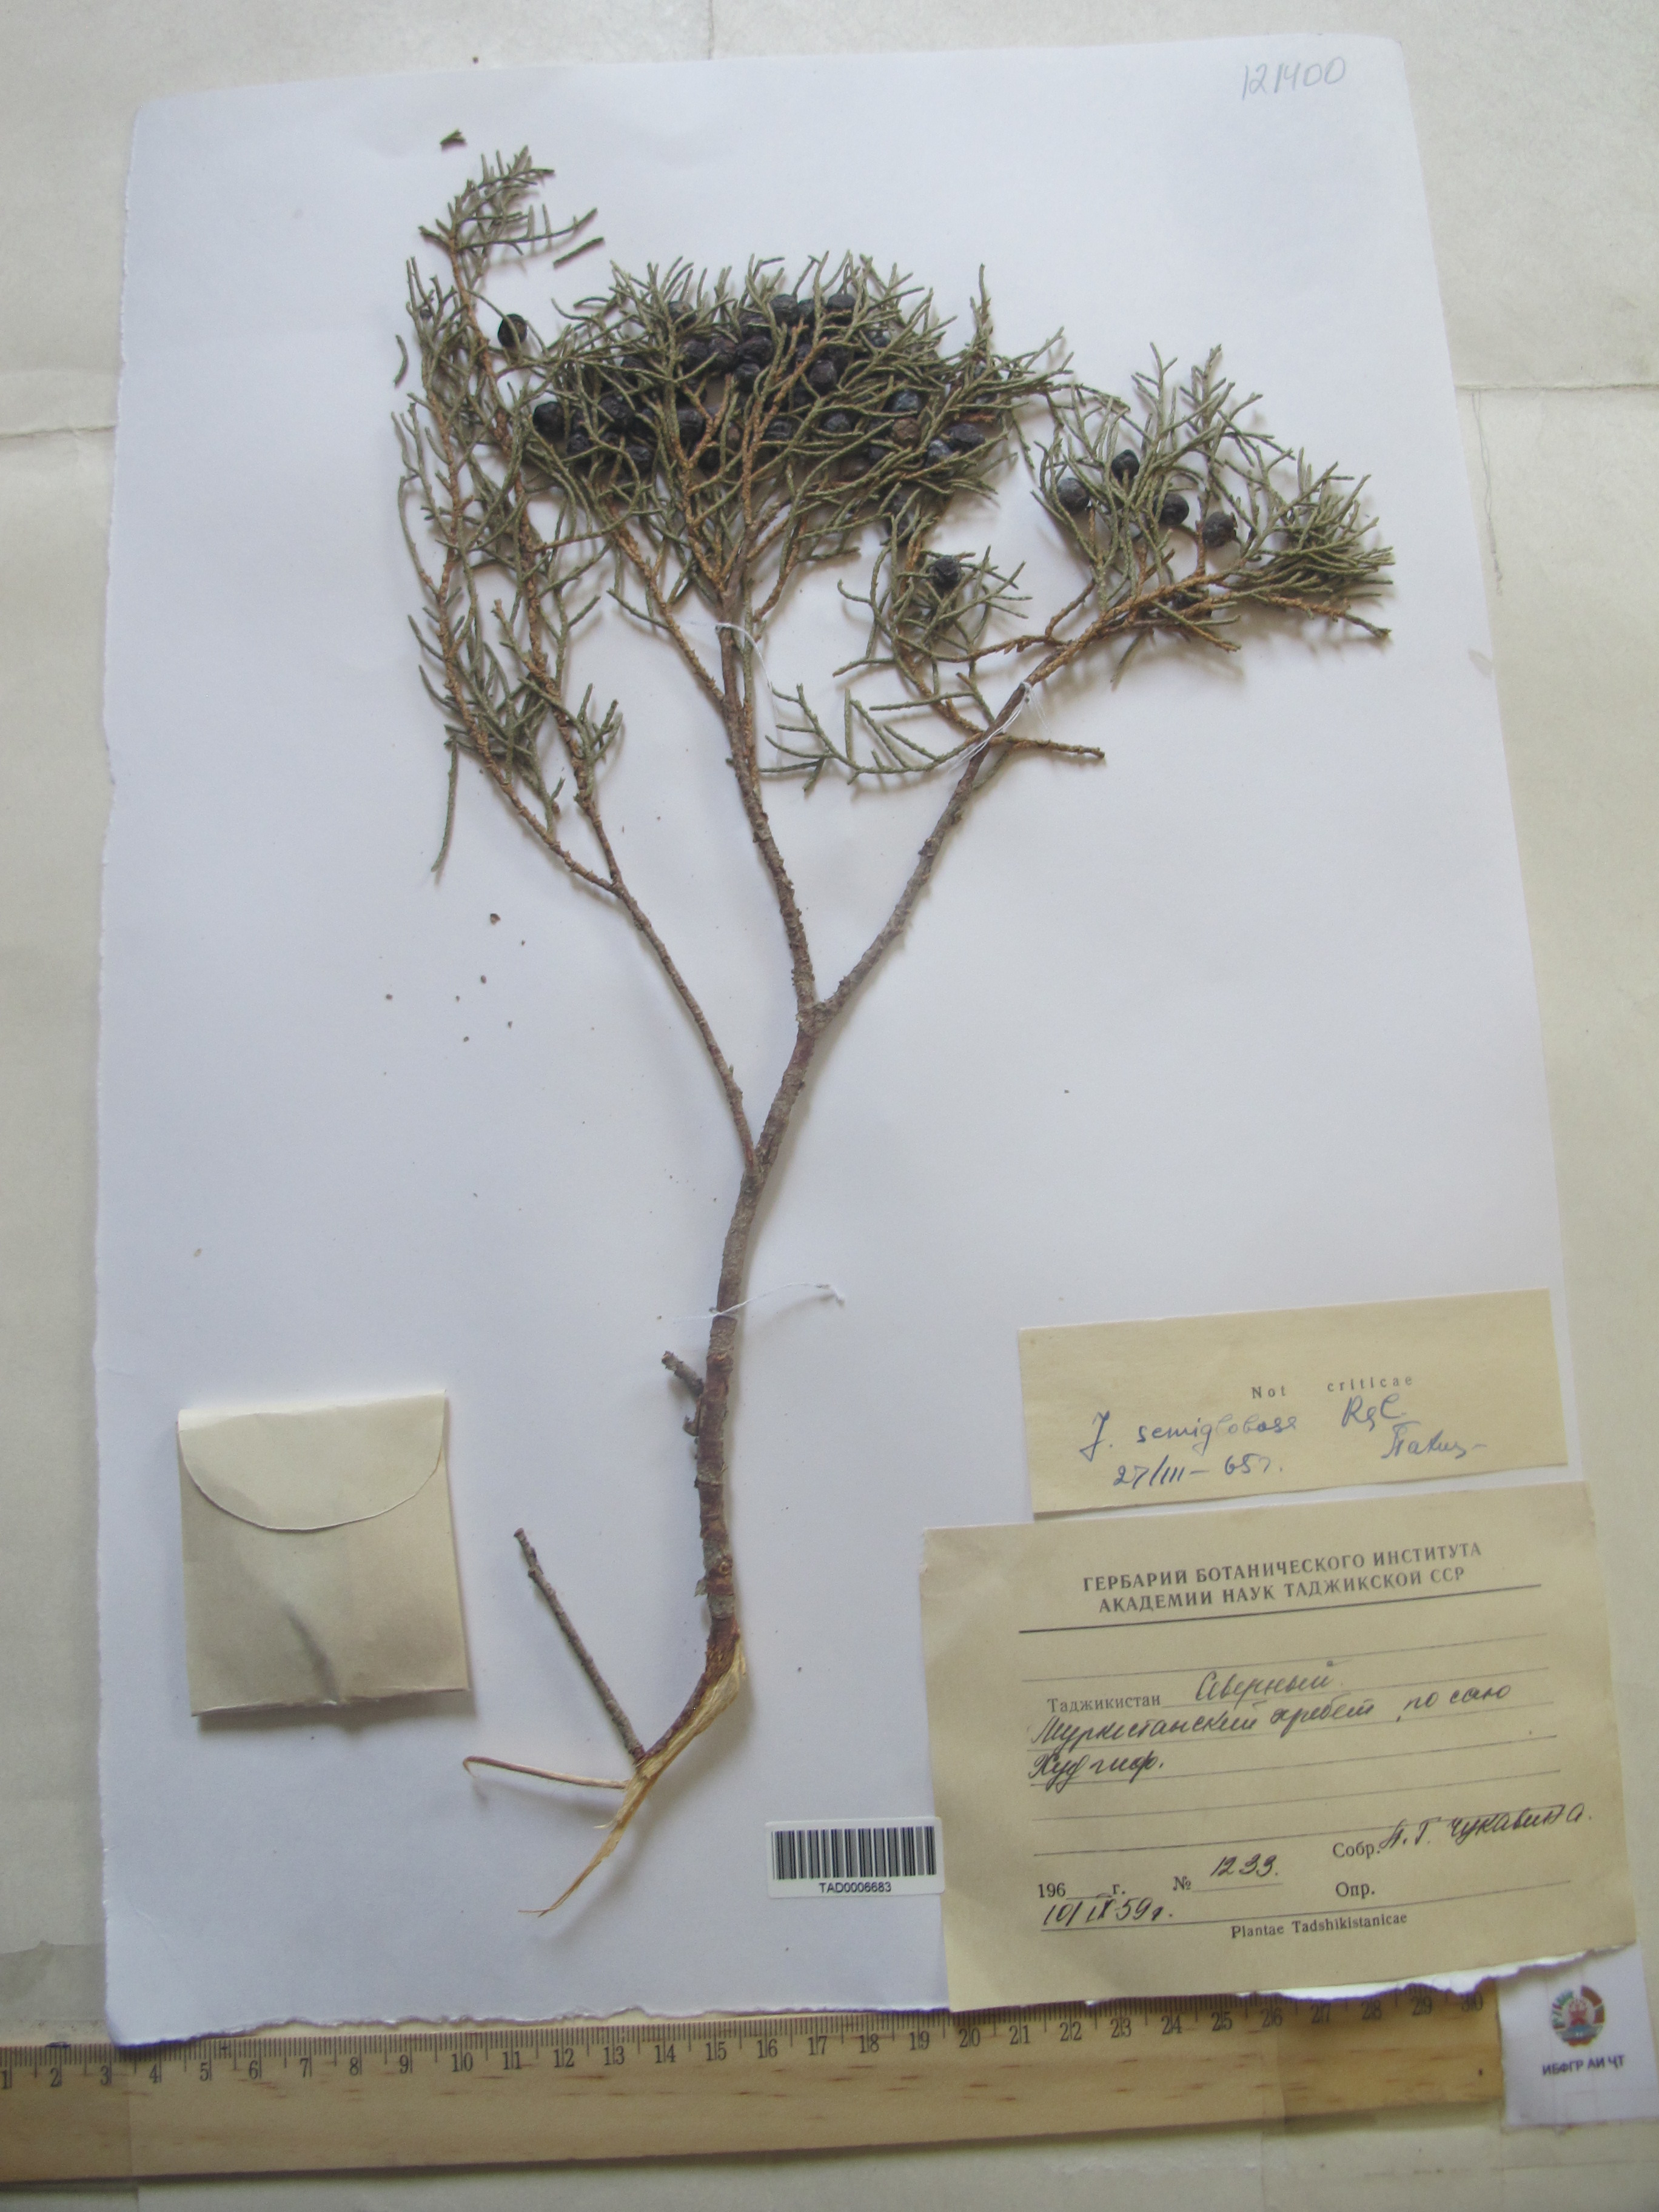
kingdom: Plantae
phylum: Tracheophyta
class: Pinopsida
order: Pinales
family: Cupressaceae
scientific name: Cupressaceae
